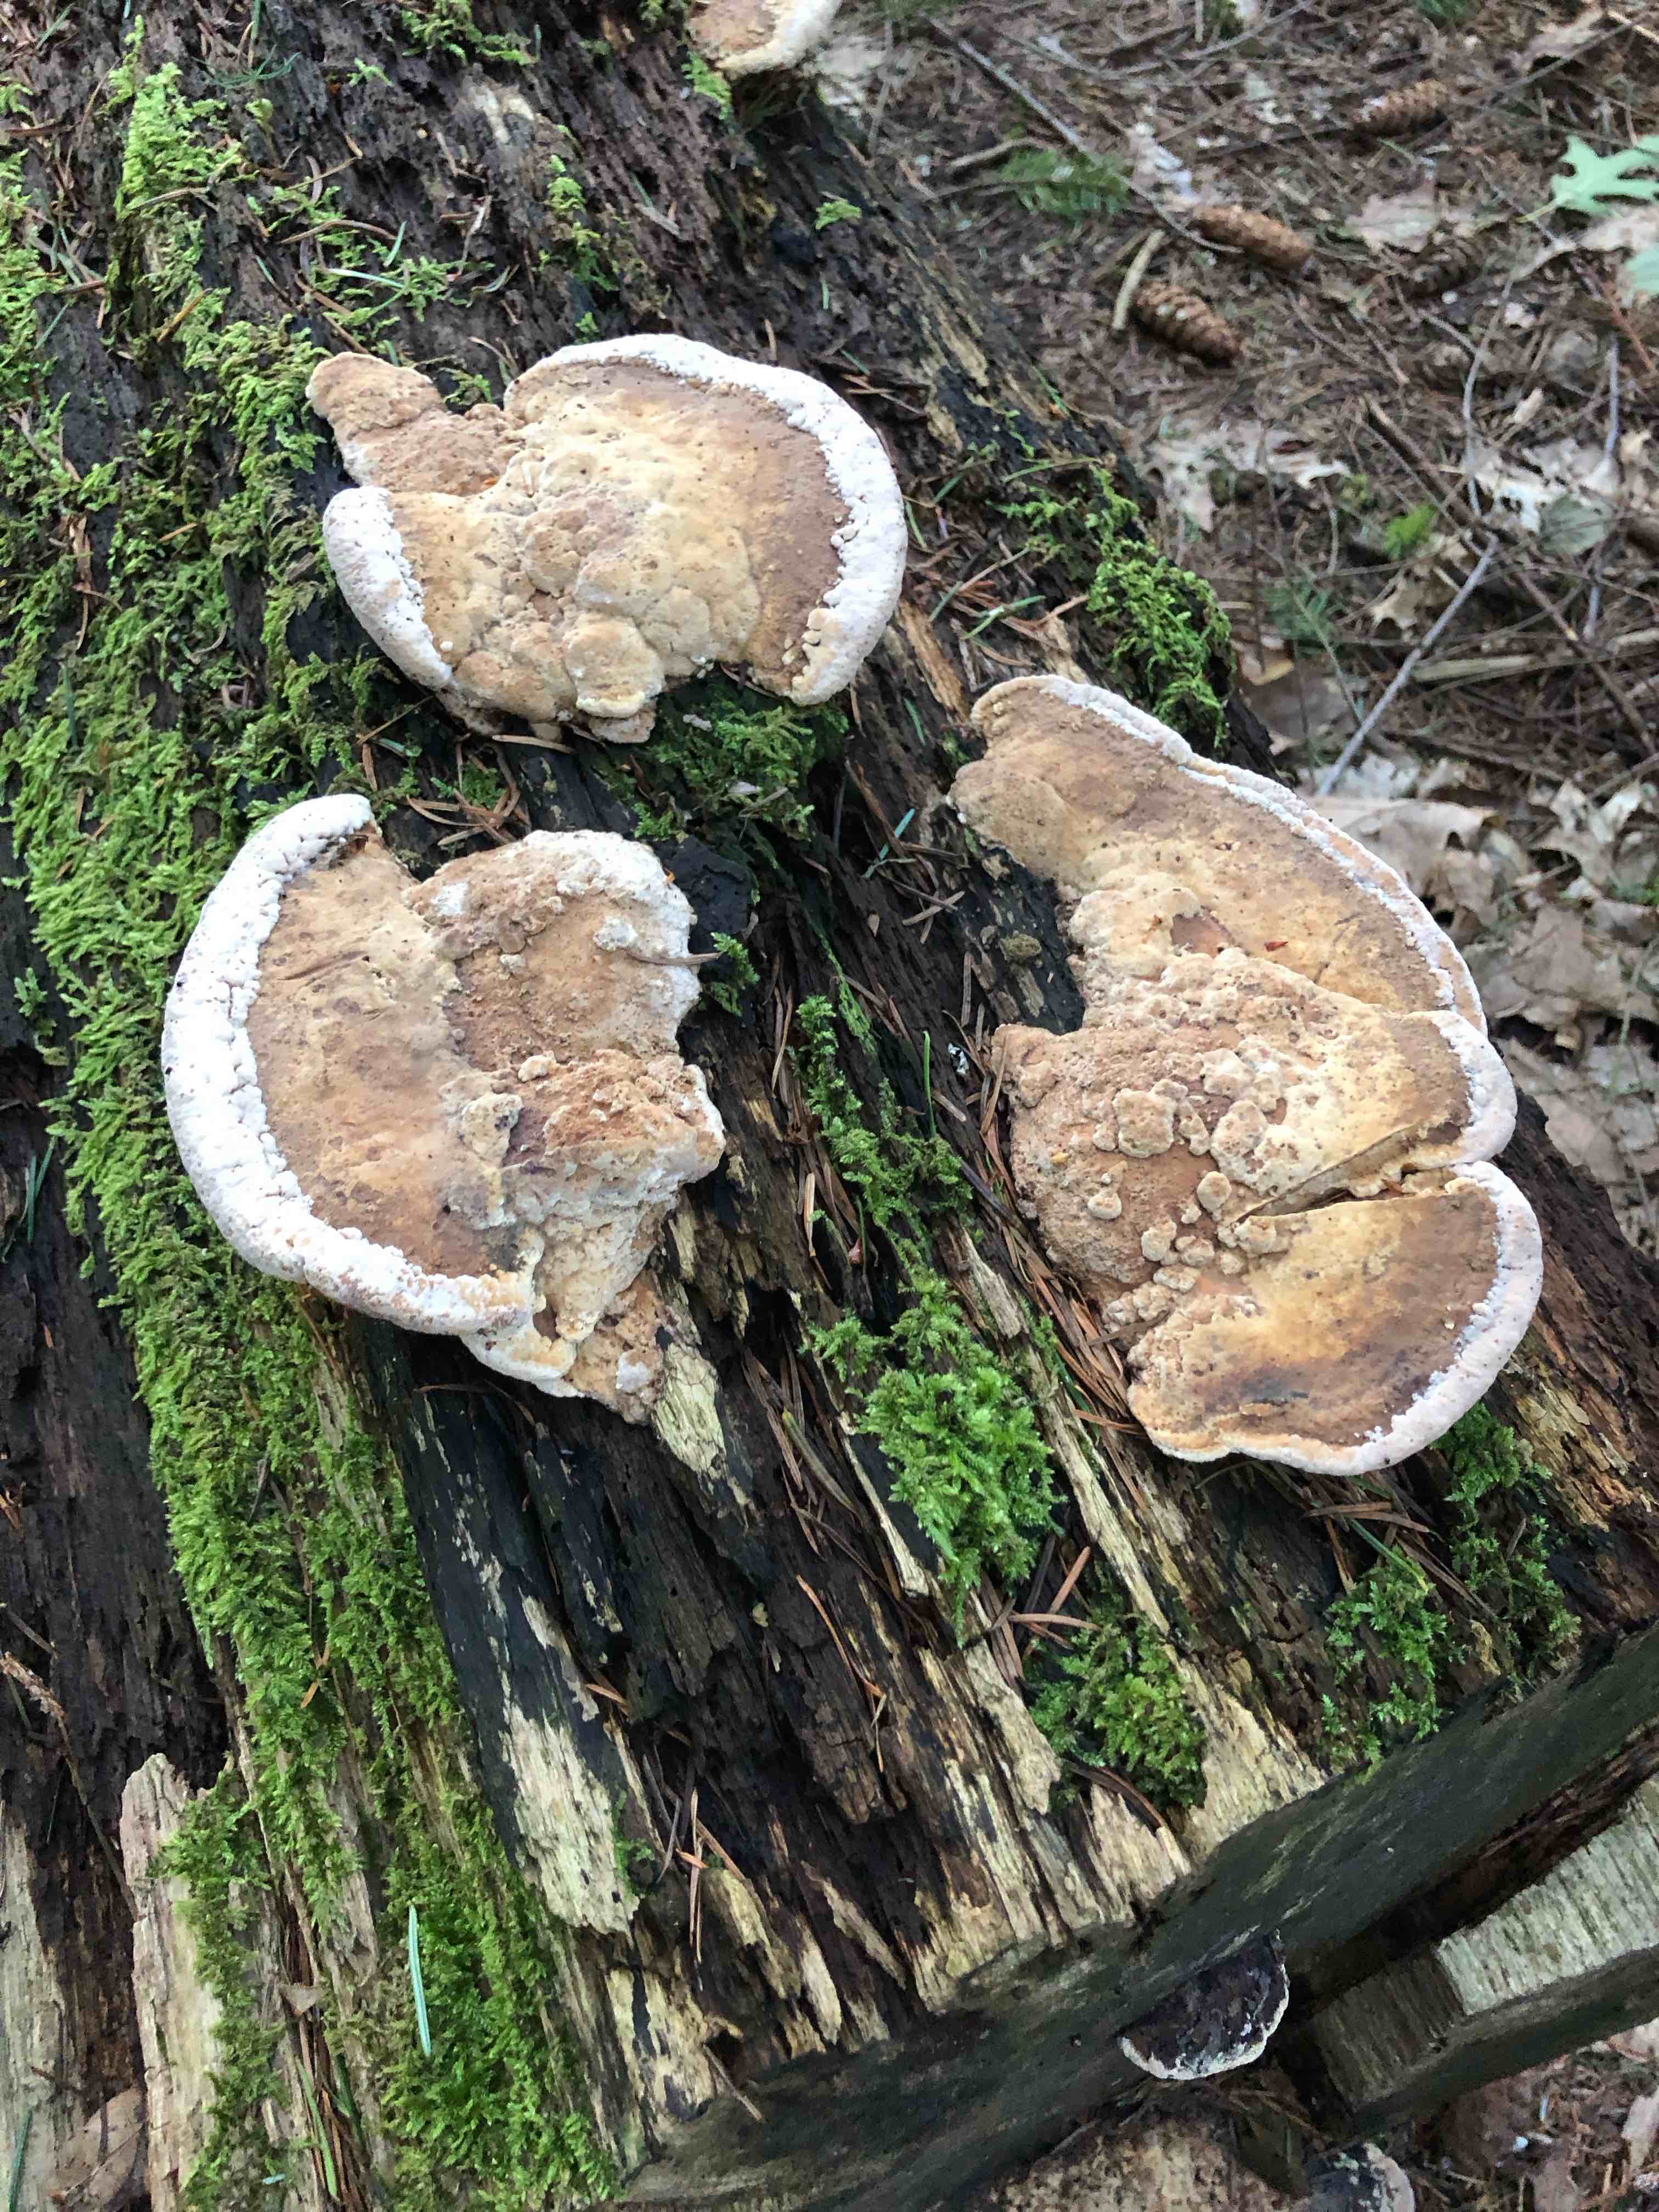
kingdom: Fungi
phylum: Basidiomycota
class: Agaricomycetes
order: Polyporales
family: Fomitopsidaceae
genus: Daedalea
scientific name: Daedalea quercina
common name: ege-labyrintsvamp
